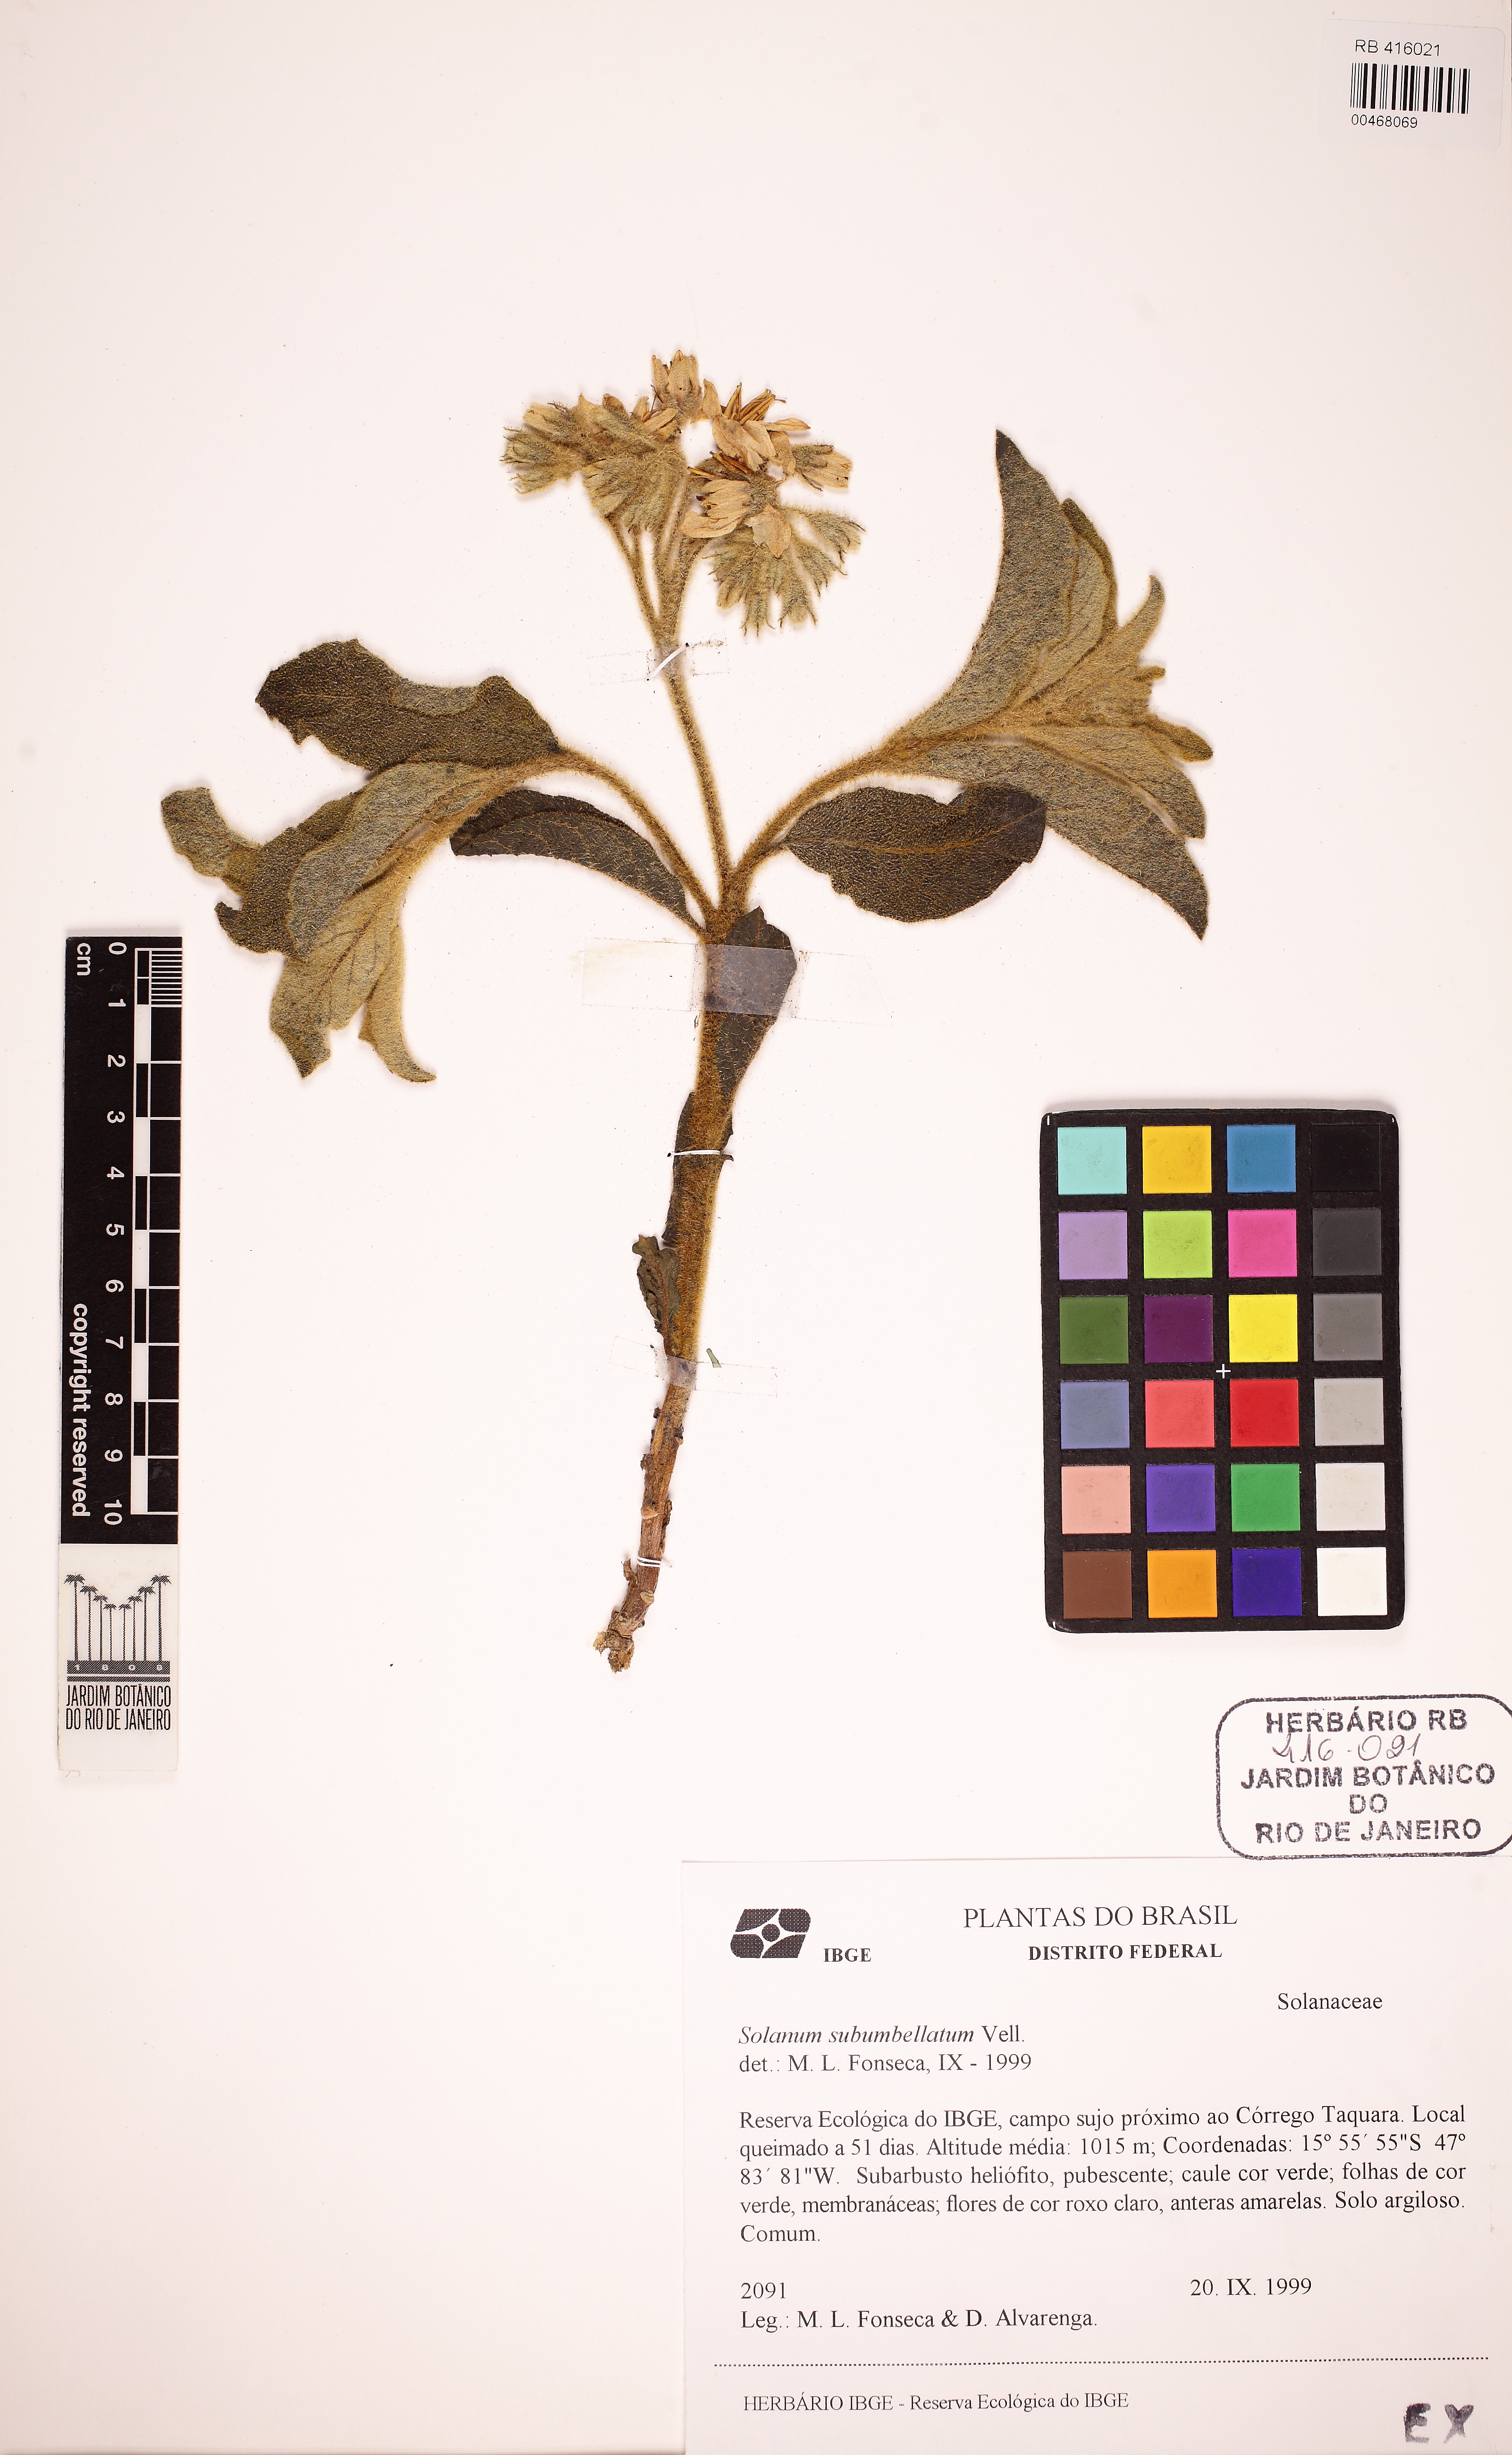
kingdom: Plantae
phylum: Tracheophyta
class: Magnoliopsida
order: Solanales
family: Solanaceae
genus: Solanum
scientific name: Solanum subumbellatum
